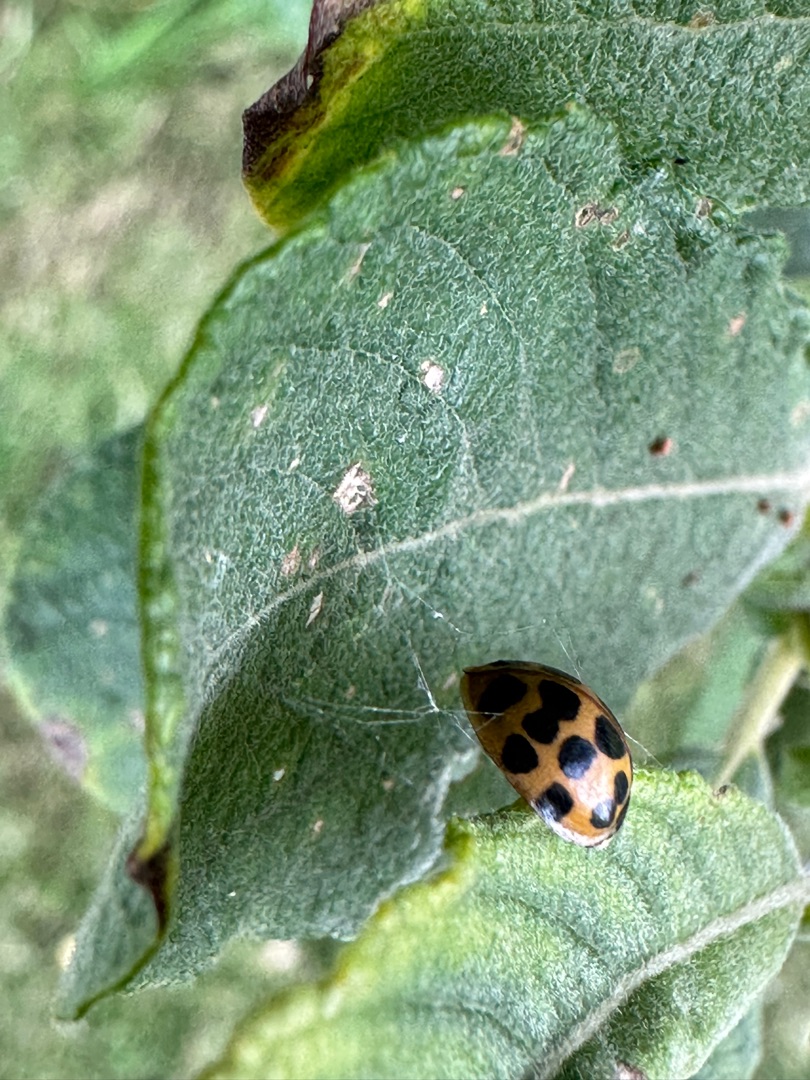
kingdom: Animalia
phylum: Arthropoda
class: Insecta
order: Coleoptera
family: Coccinellidae
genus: Harmonia
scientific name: Harmonia axyridis
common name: Harlekinmariehøne
